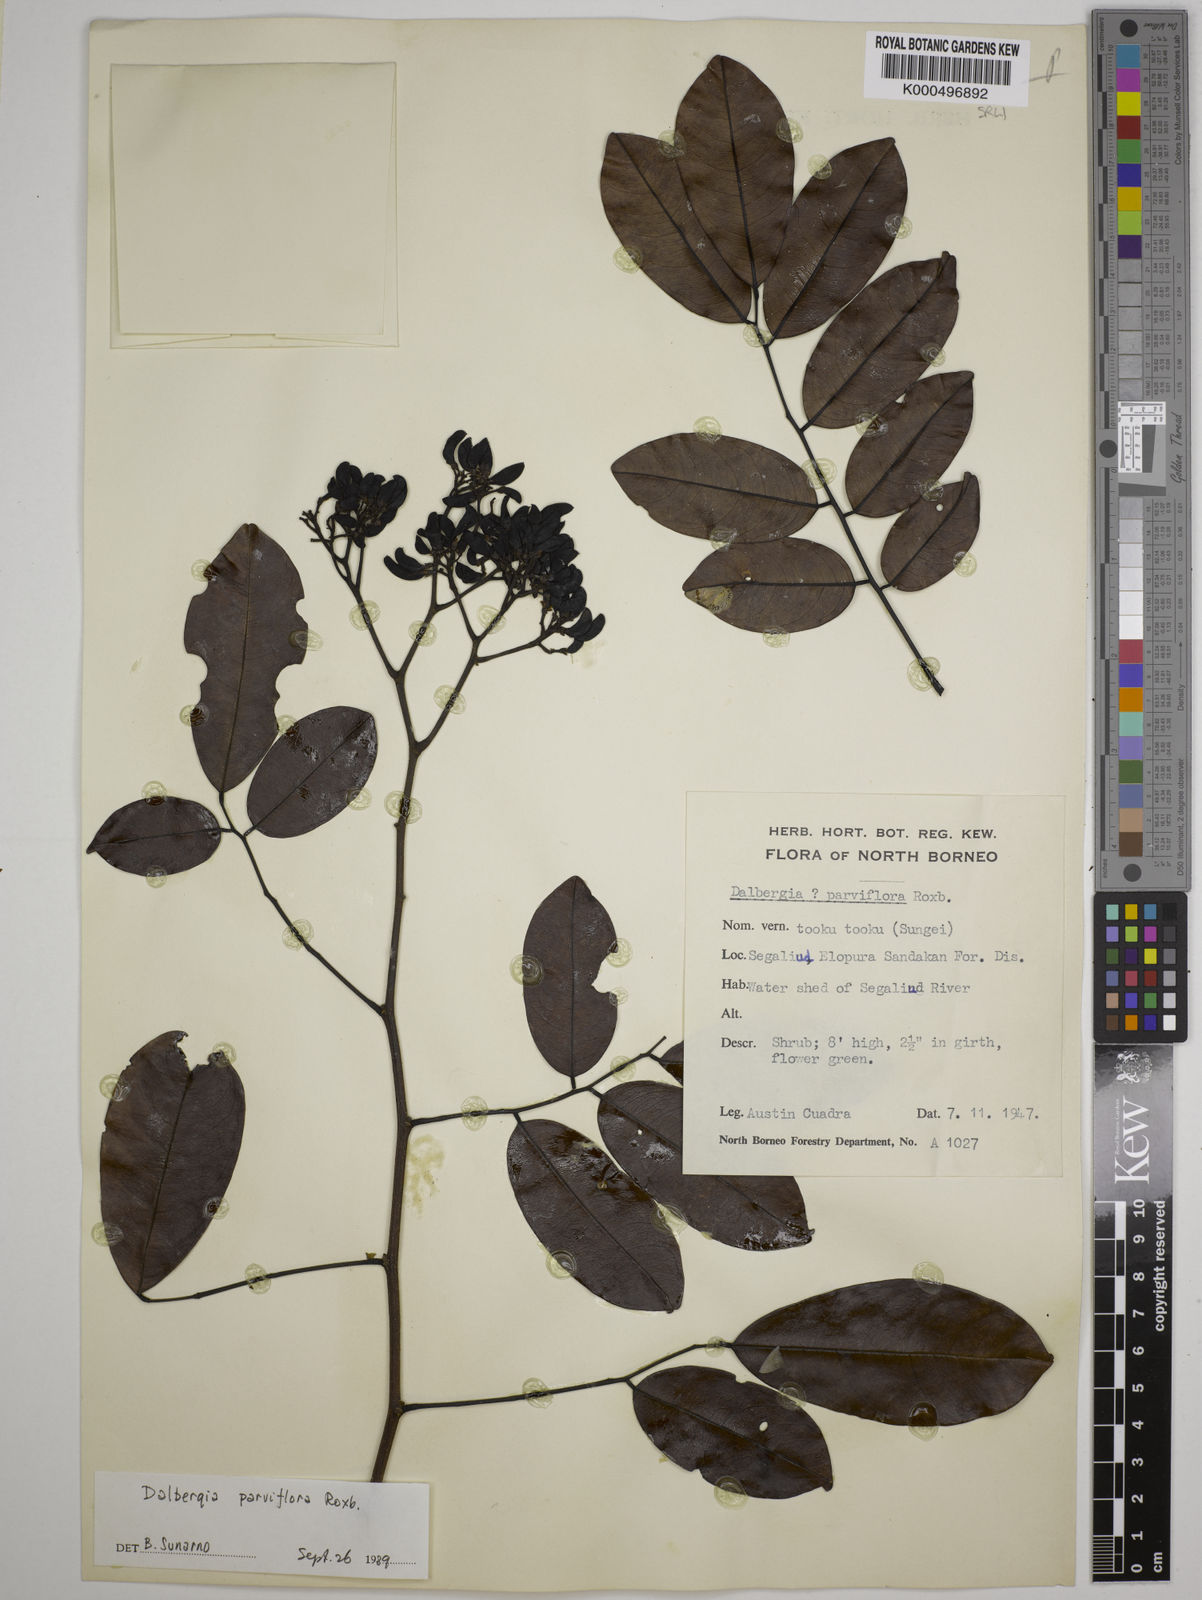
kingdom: Plantae
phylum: Tracheophyta
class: Magnoliopsida
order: Fabales
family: Fabaceae
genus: Dalbergia
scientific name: Dalbergia parviflora
